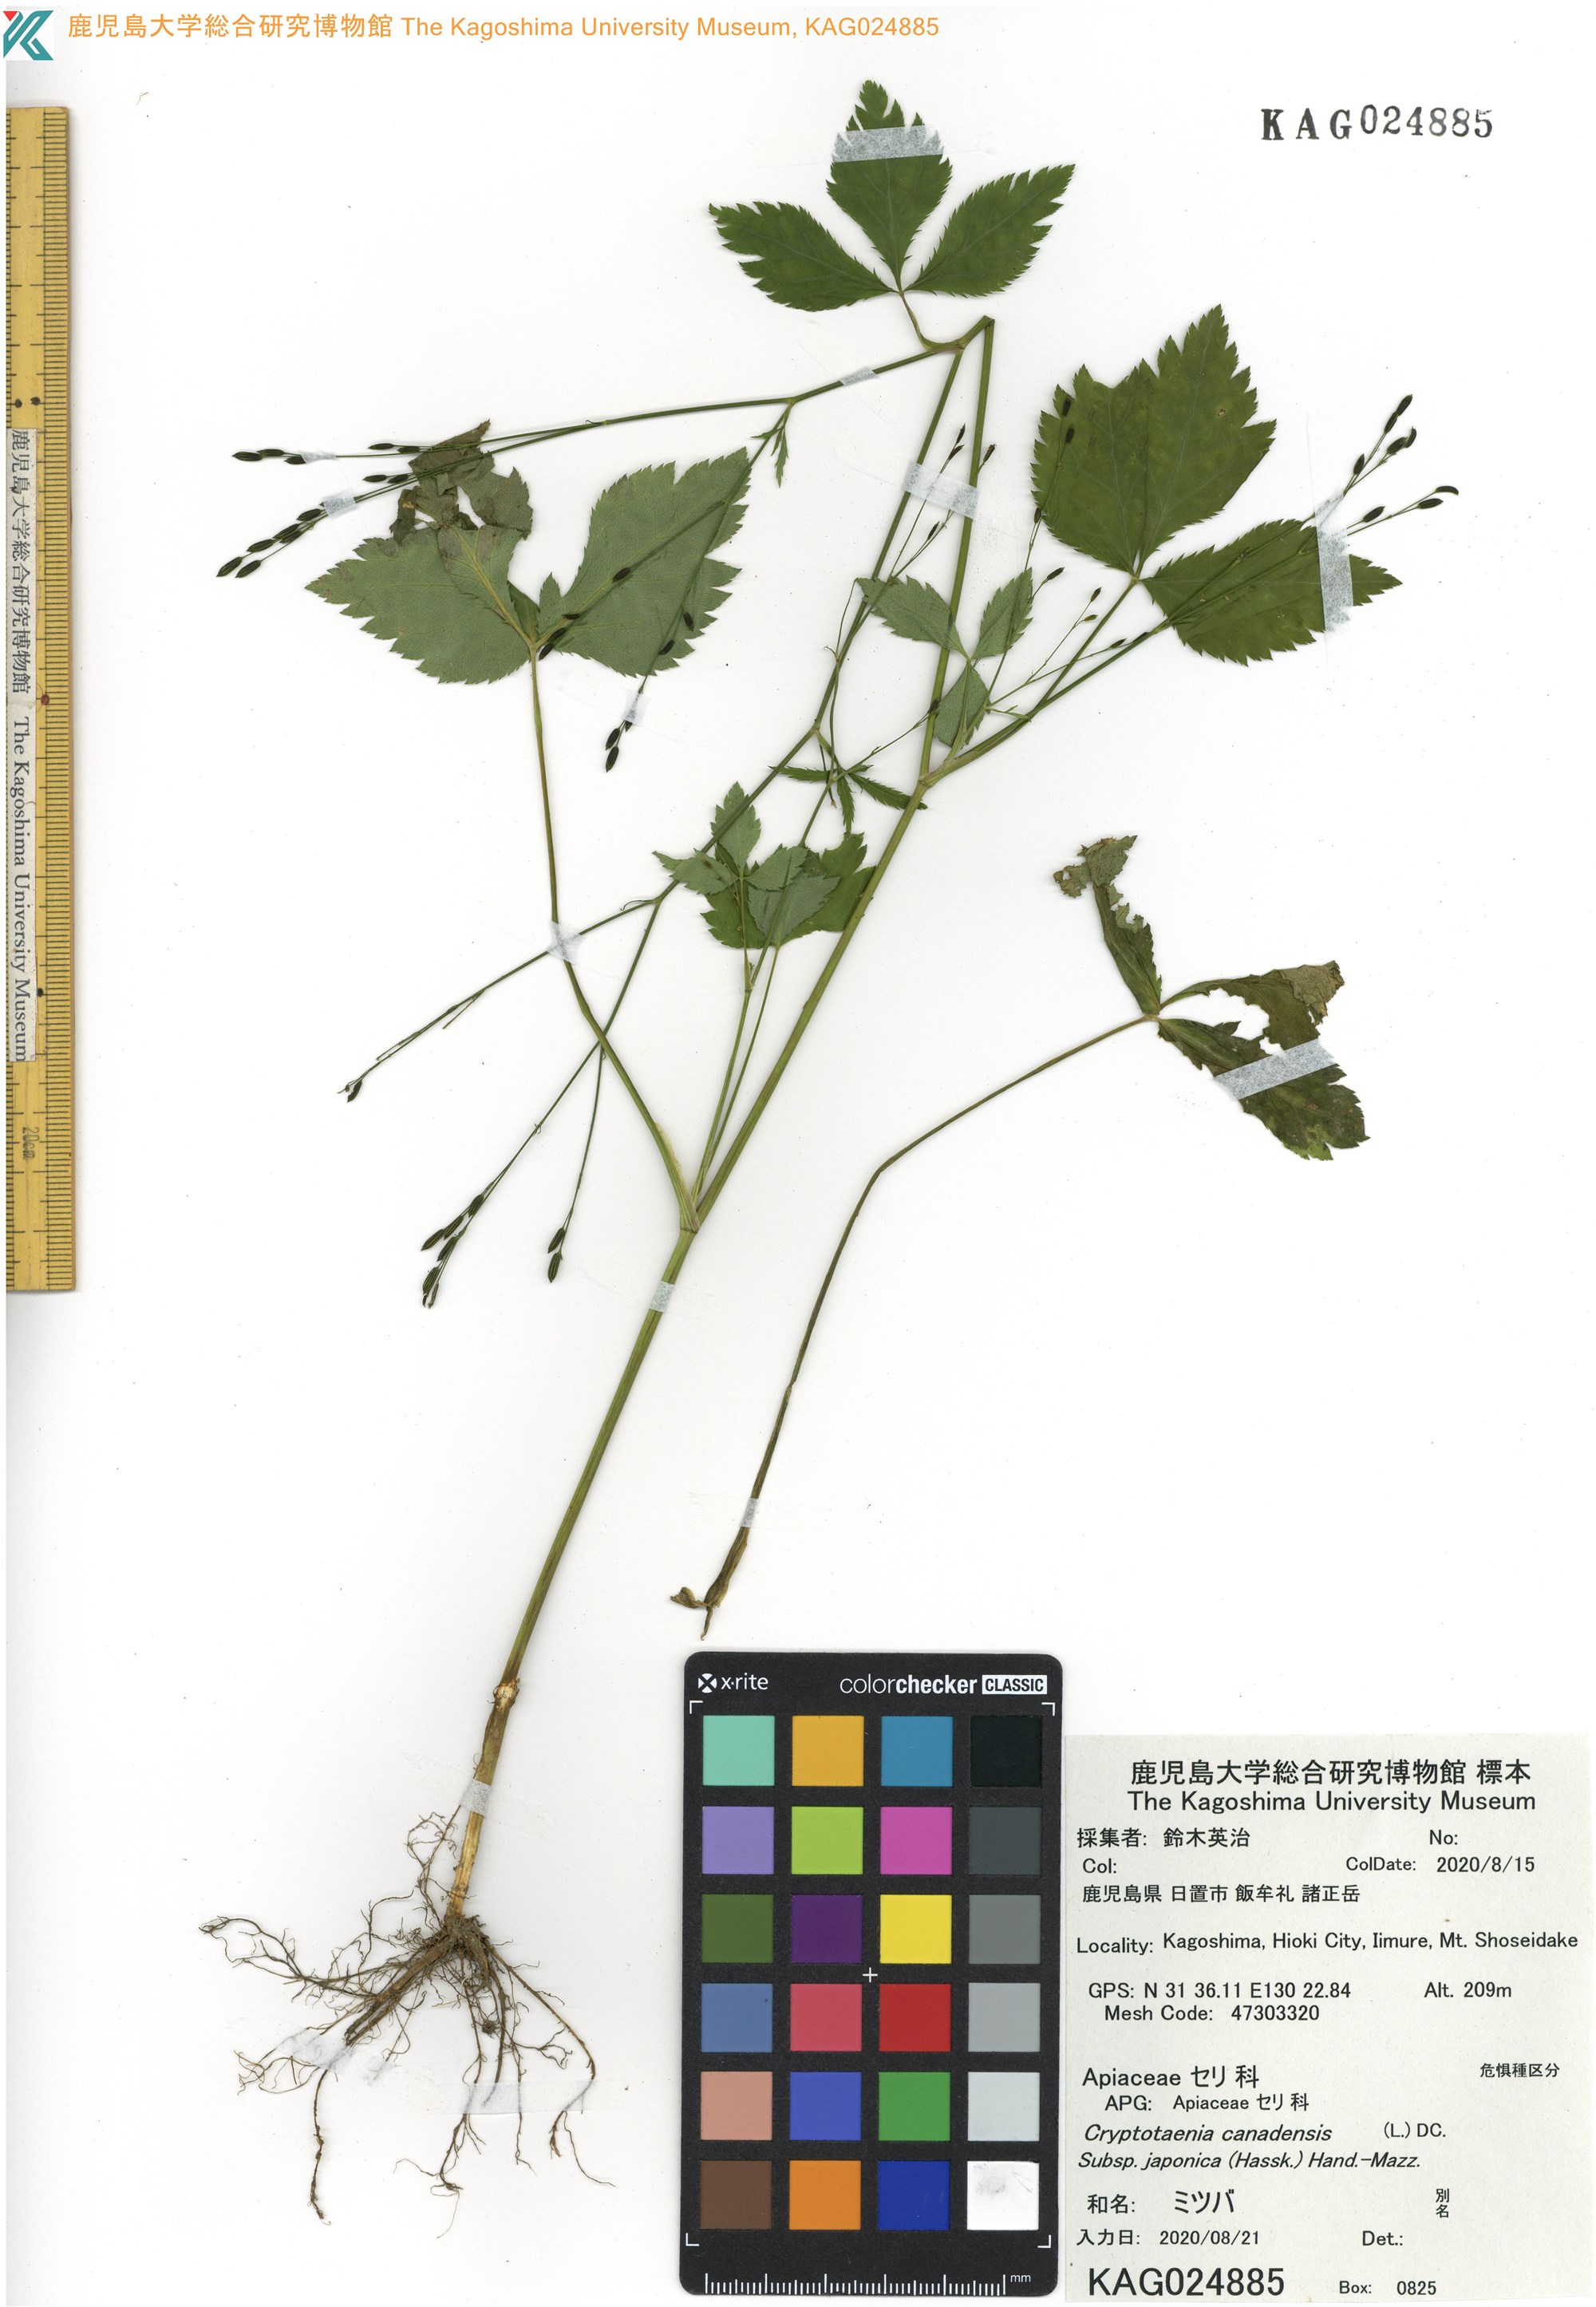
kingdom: Plantae
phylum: Tracheophyta
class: Magnoliopsida
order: Apiales
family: Apiaceae
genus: Cryptotaenia
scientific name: Cryptotaenia japonica
